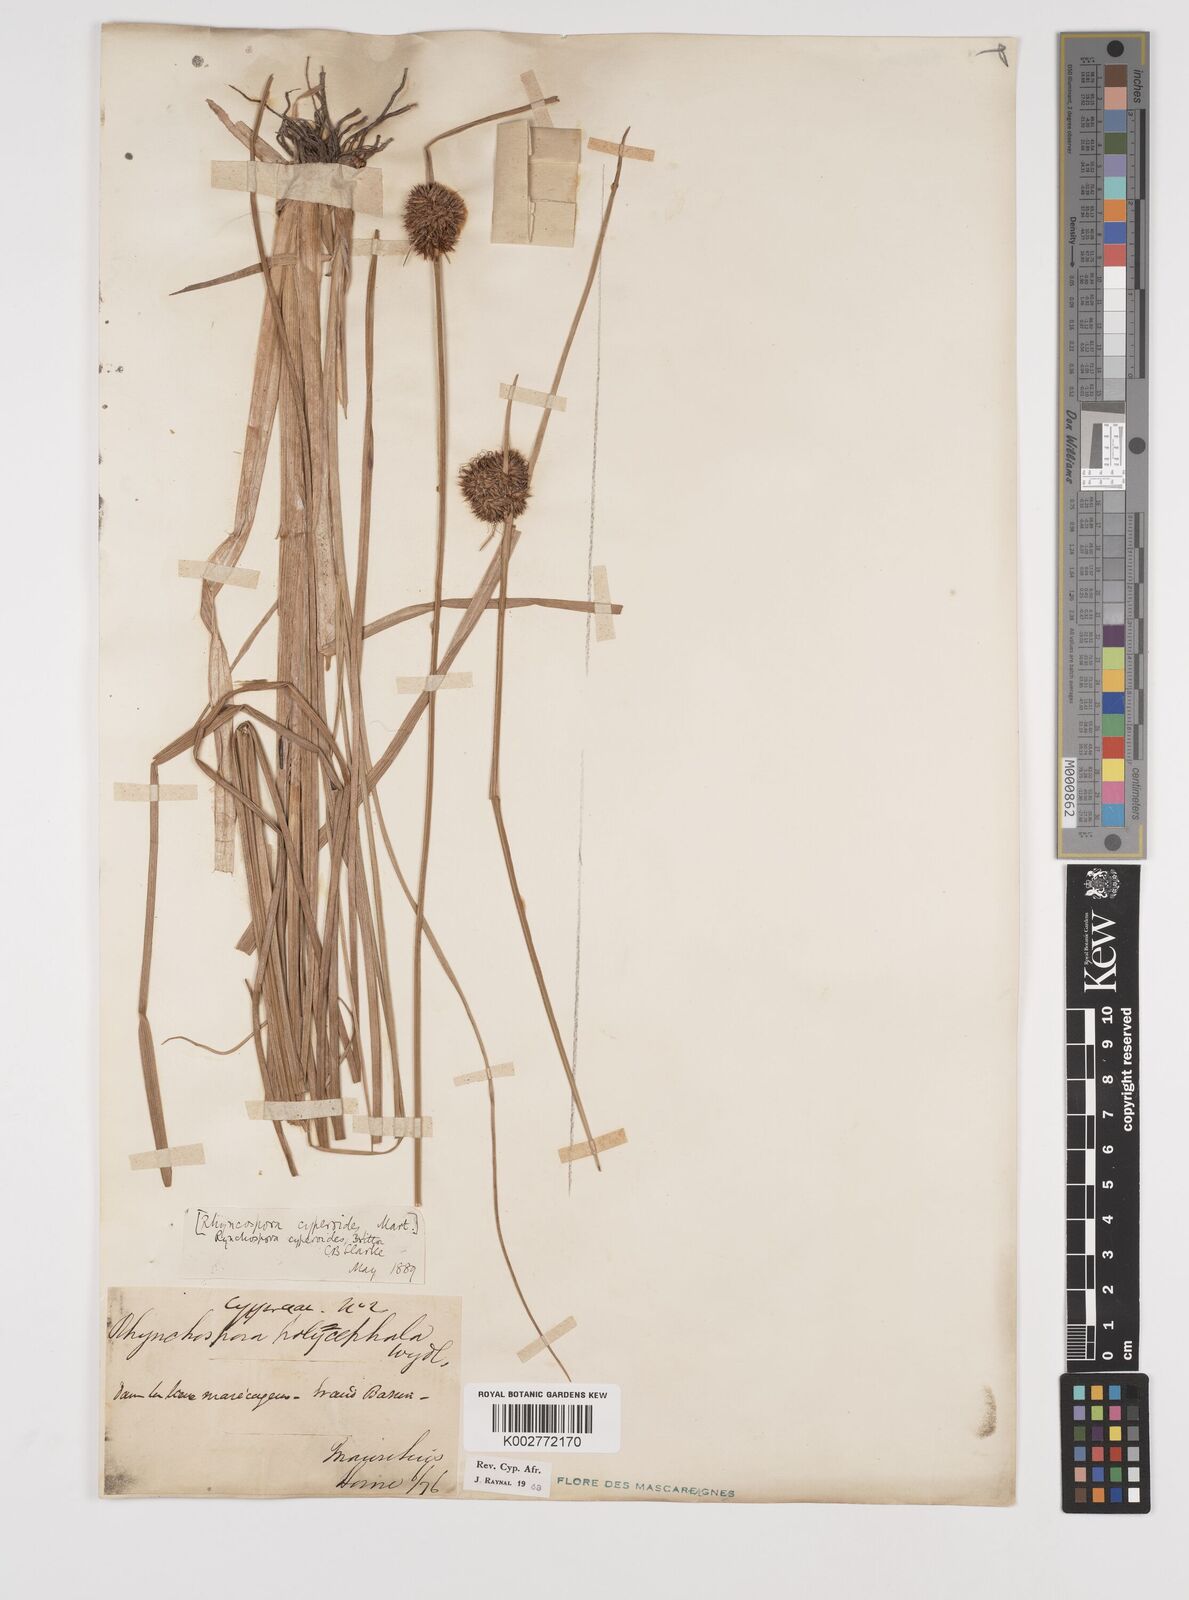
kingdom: Plantae
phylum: Tracheophyta
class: Liliopsida
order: Poales
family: Cyperaceae
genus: Rhynchospora
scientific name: Rhynchospora holoschoenoides
